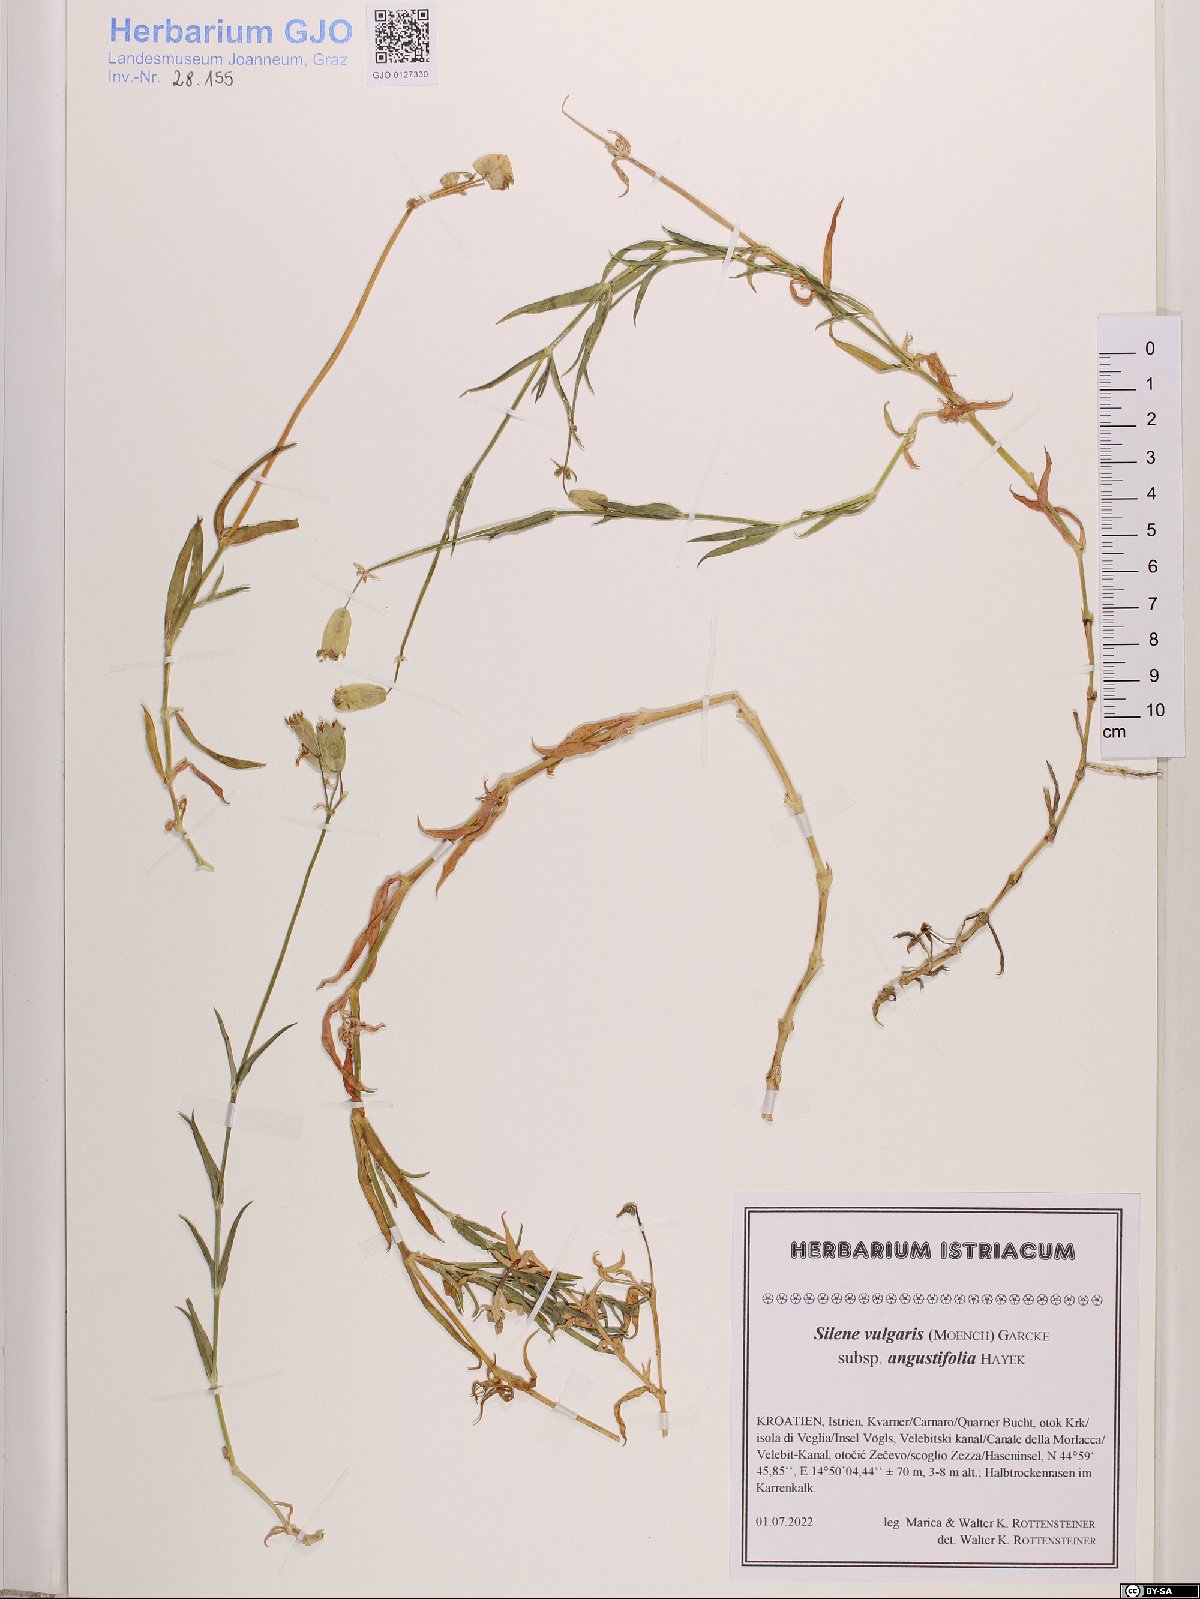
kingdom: Plantae
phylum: Tracheophyta
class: Magnoliopsida
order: Caryophyllales
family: Caryophyllaceae
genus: Silene
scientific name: Silene vulgaris
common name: Bladder campion
